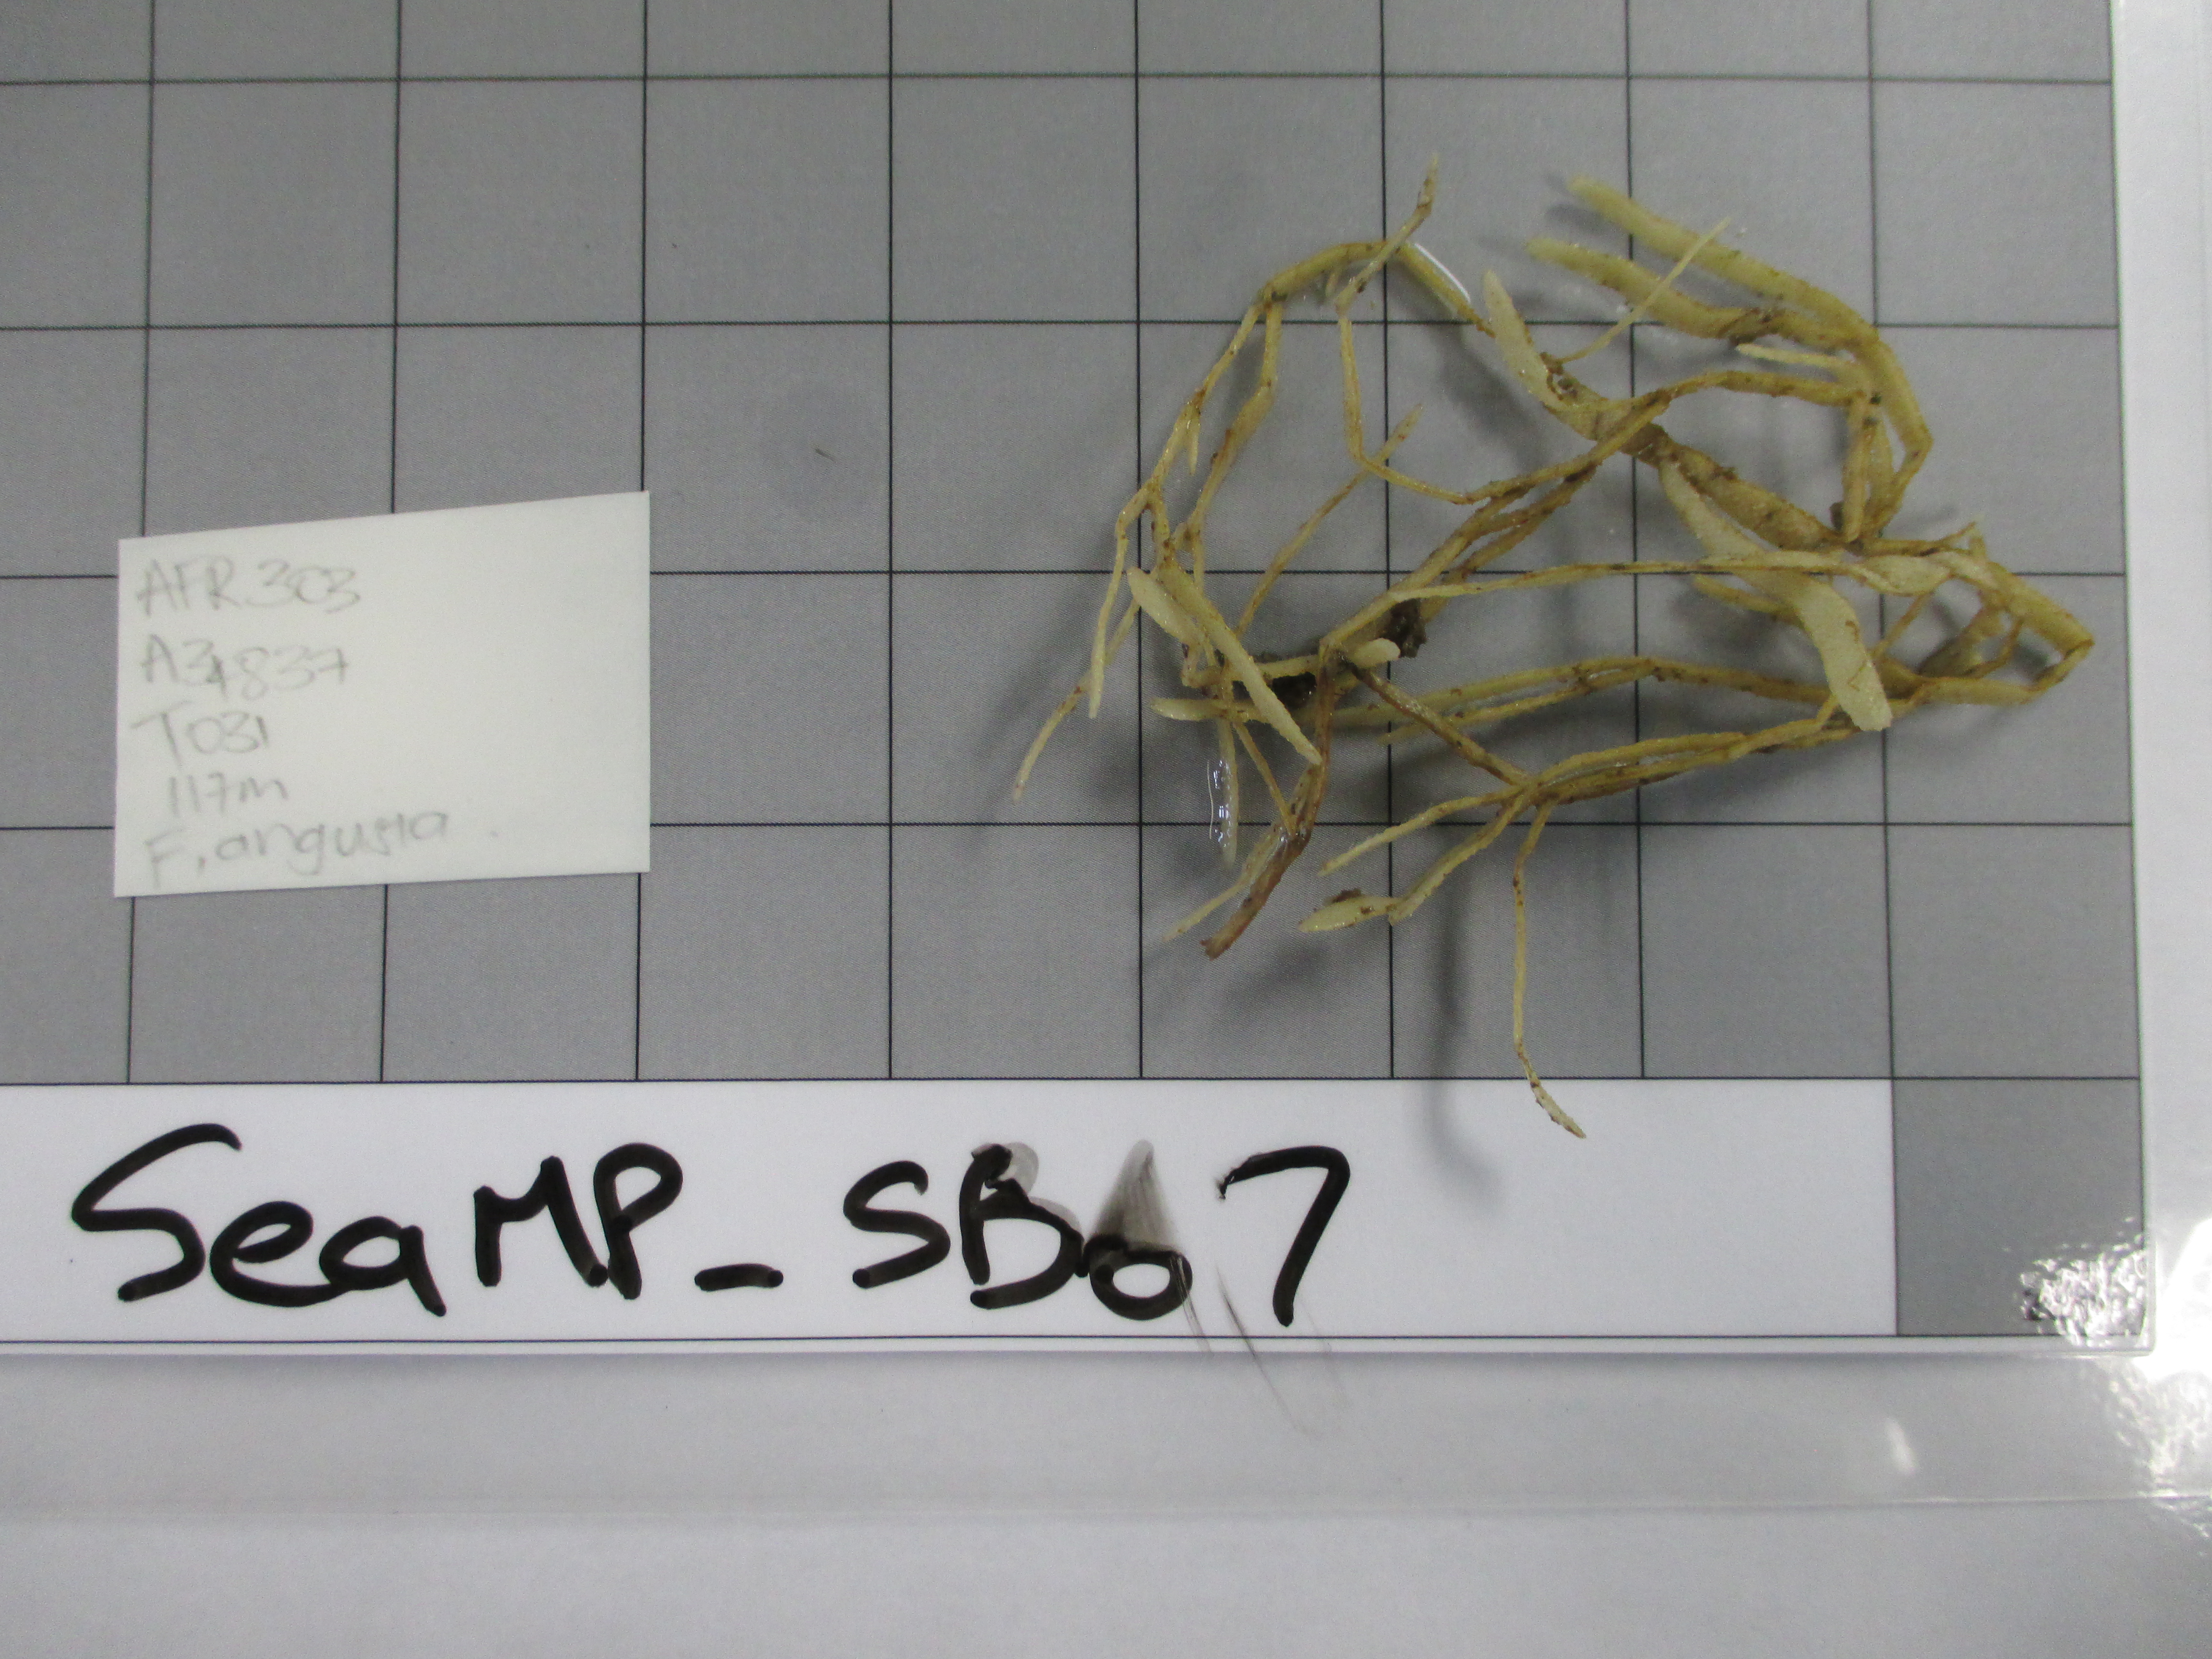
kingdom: Animalia
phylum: Bryozoa
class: Gymnolaemata
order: Cheilostomatida
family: Microporellidae
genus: Flustramorpha
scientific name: Flustramorpha angusta
